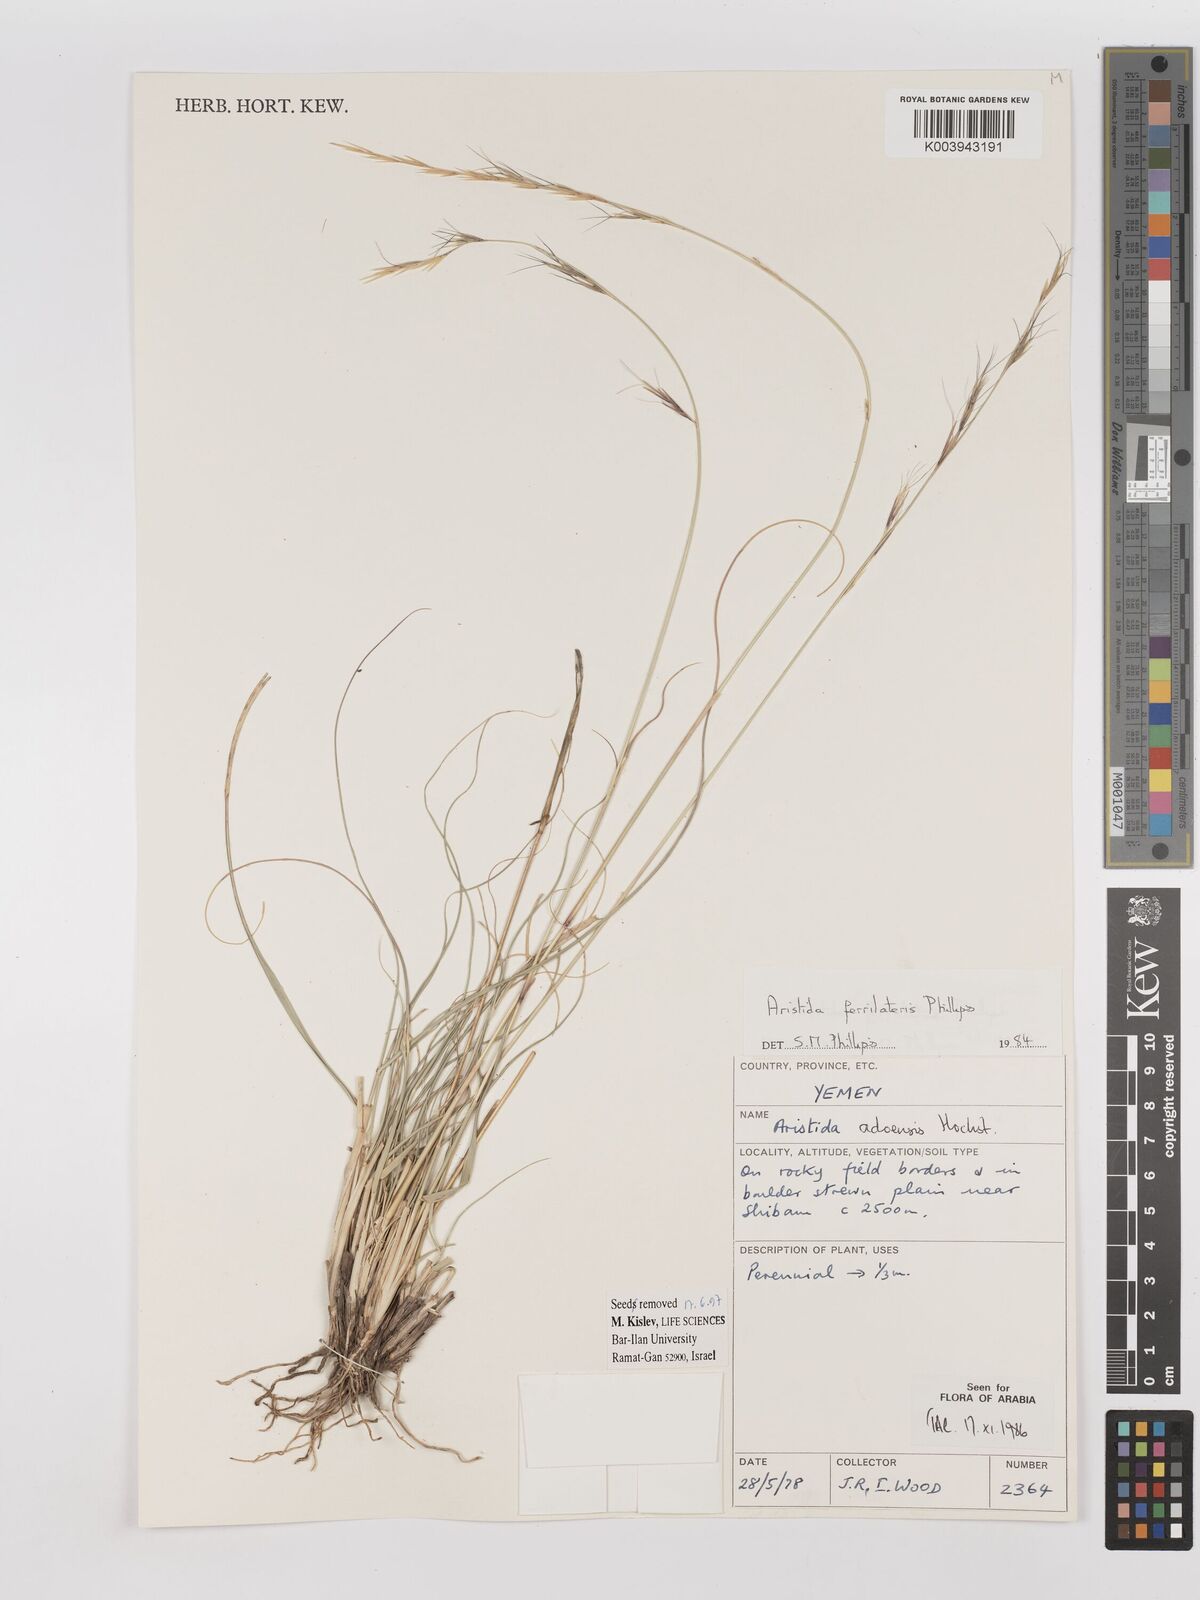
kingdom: Plantae
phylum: Tracheophyta
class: Liliopsida
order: Poales
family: Poaceae
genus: Aristida
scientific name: Aristida ferrilateris
